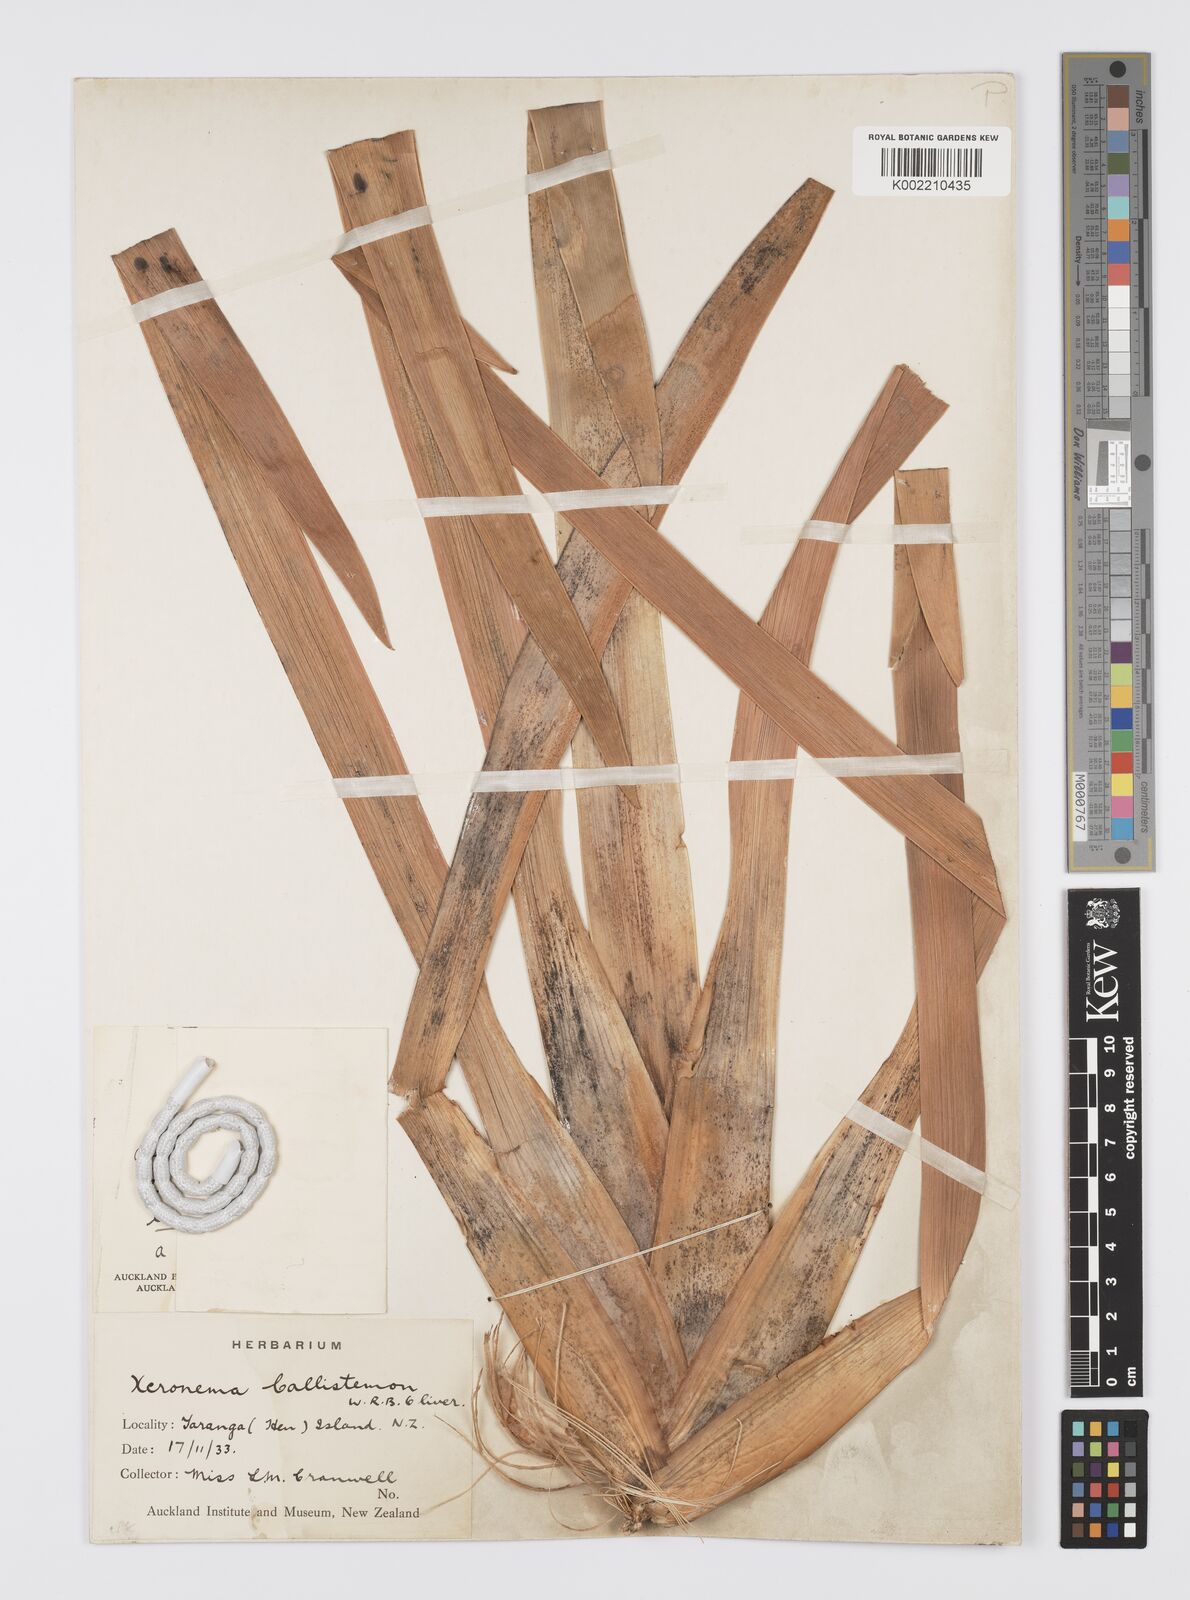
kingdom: Plantae
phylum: Tracheophyta
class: Liliopsida
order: Asparagales
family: Xeronemataceae
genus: Xeronema
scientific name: Xeronema callistemon
